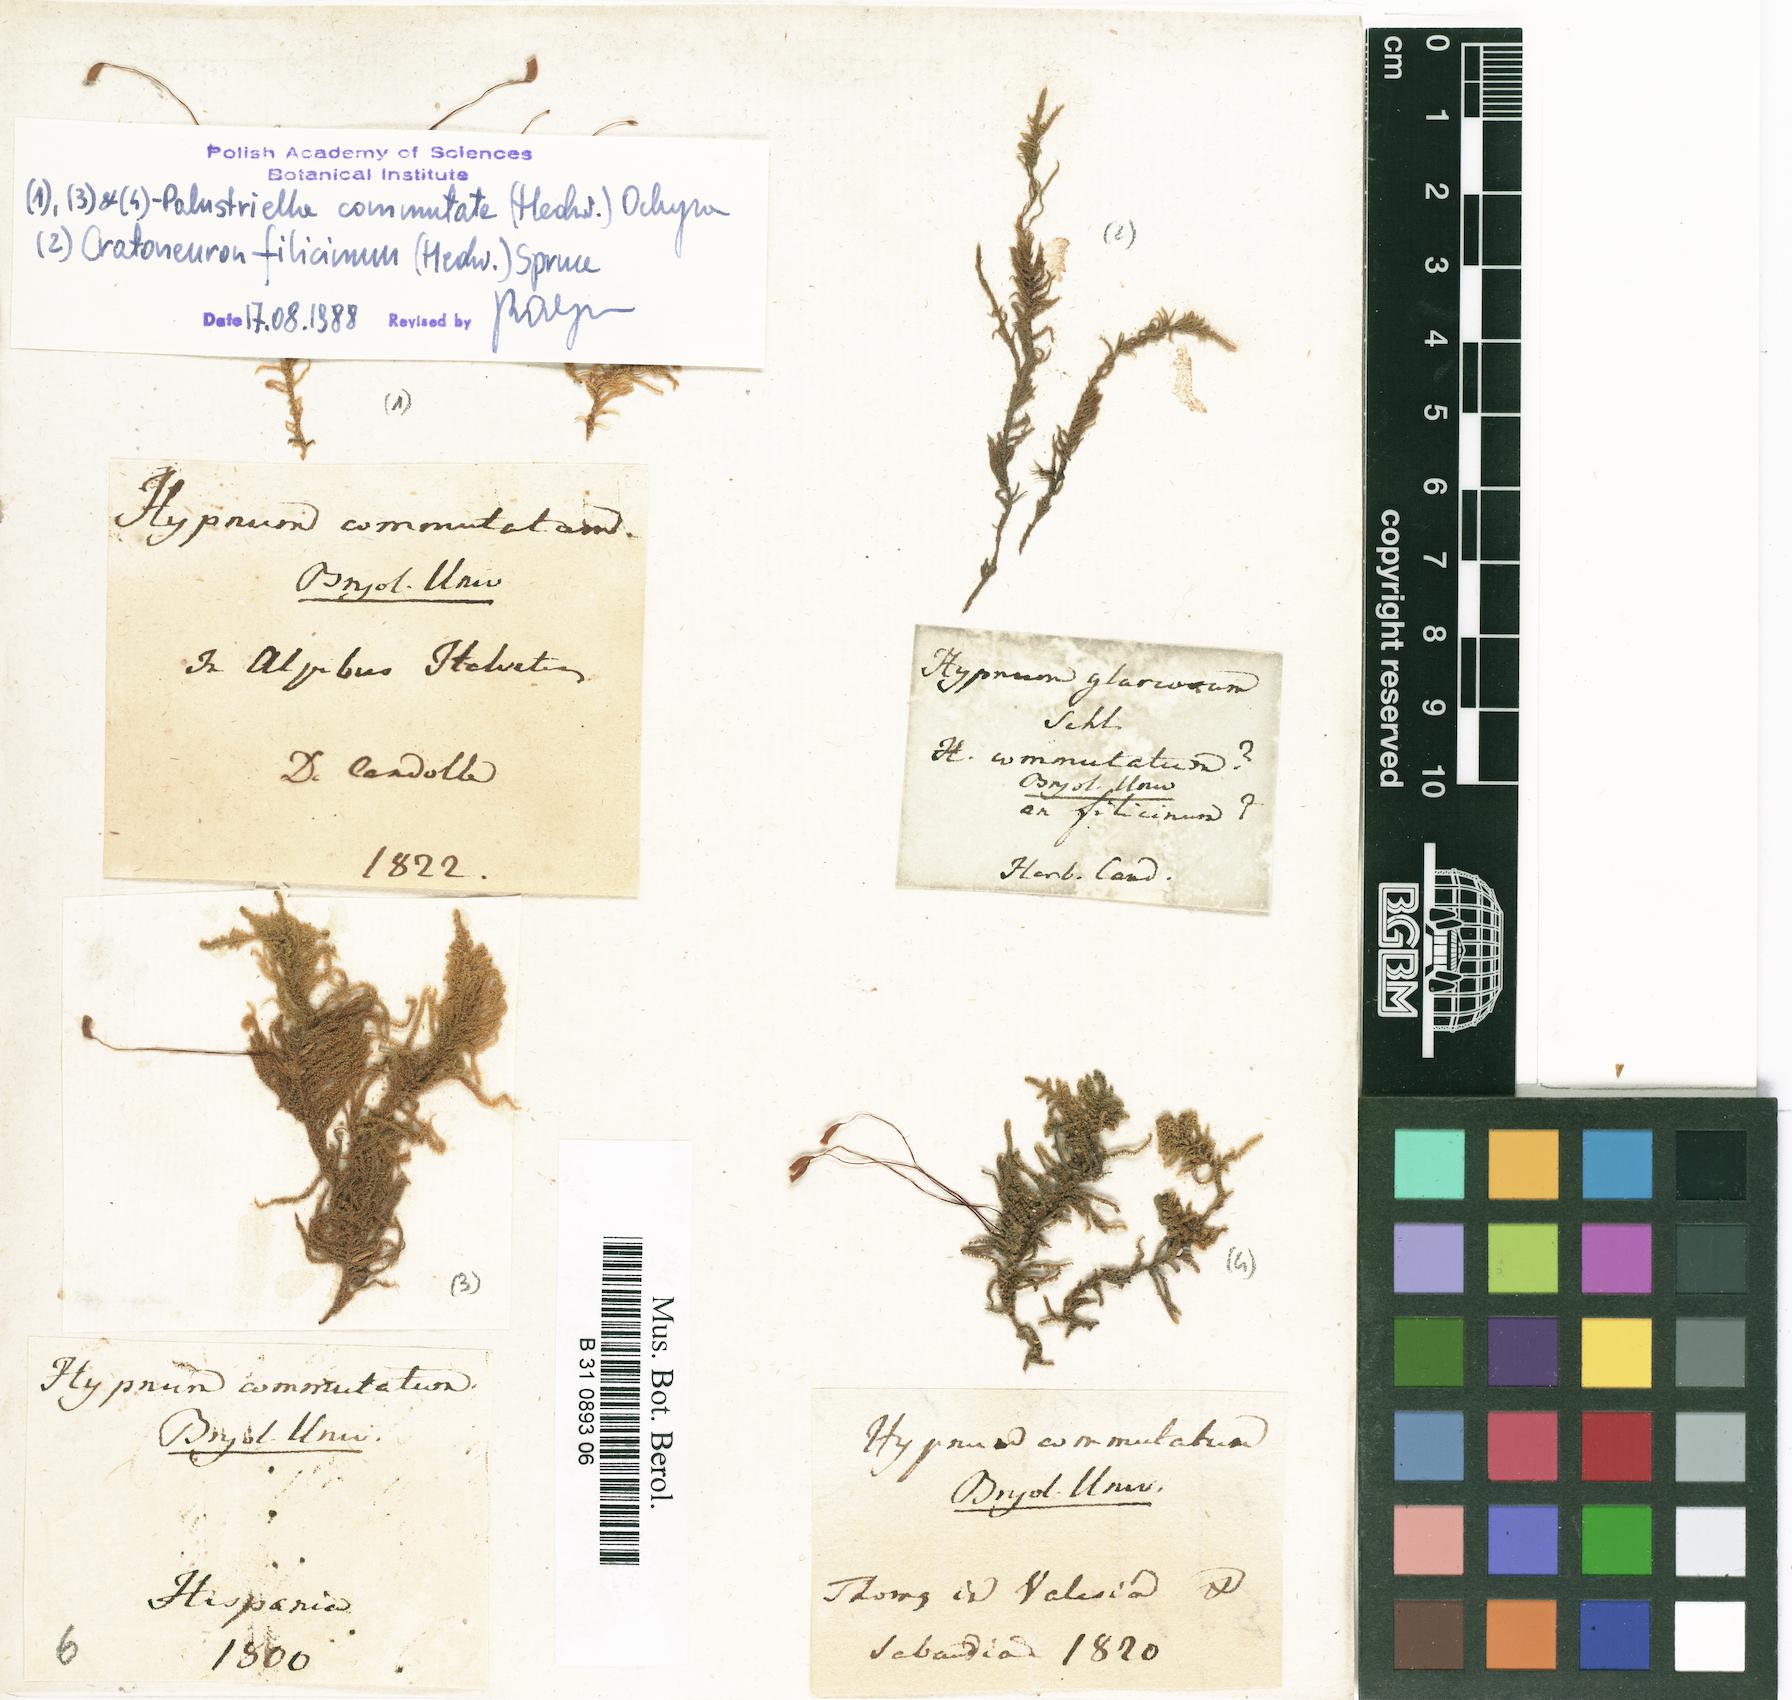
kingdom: Plantae
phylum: Bryophyta
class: Bryopsida
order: Hypnales
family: Amblystegiaceae
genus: Palustriella
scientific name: Palustriella commutata
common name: Curled hook-moss
